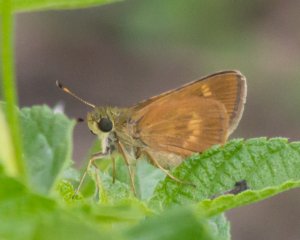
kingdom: Animalia
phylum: Arthropoda
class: Insecta
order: Lepidoptera
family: Hesperiidae
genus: Wallengrenia
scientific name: Wallengrenia otho
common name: Southern Broken-Dash
